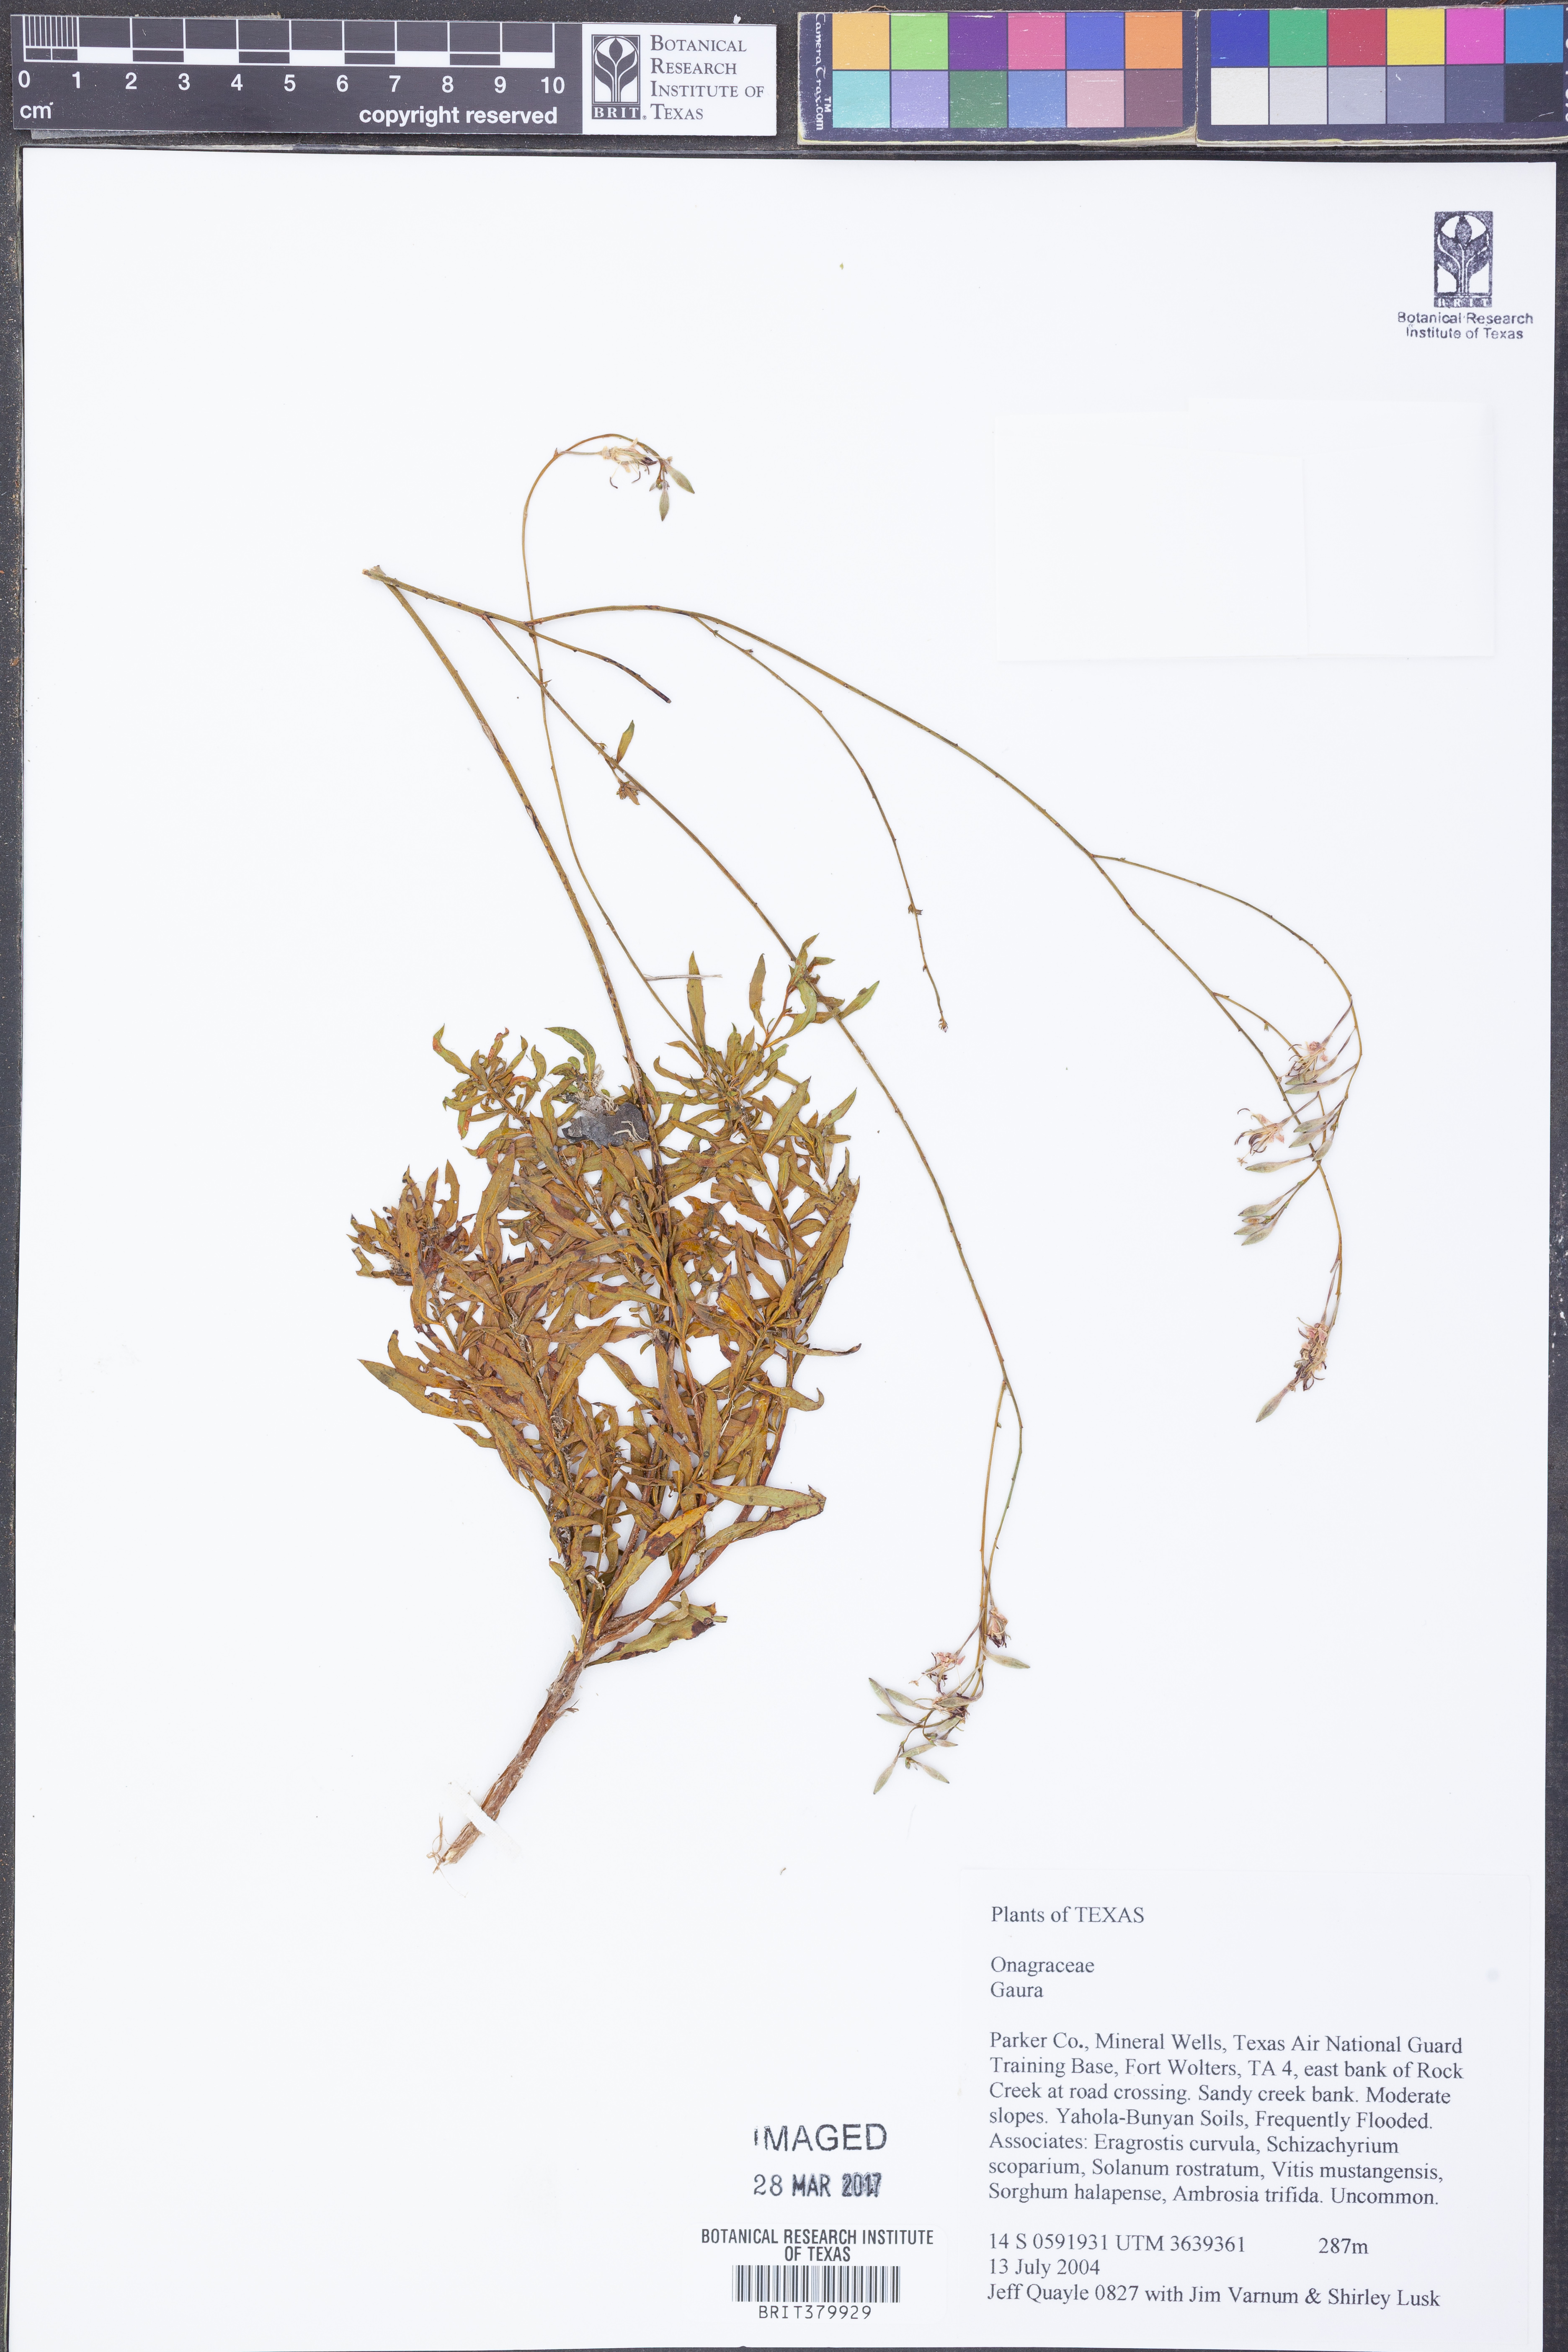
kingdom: Plantae
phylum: Tracheophyta
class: Magnoliopsida
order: Myrtales
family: Onagraceae
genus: Oenothera
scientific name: Oenothera
